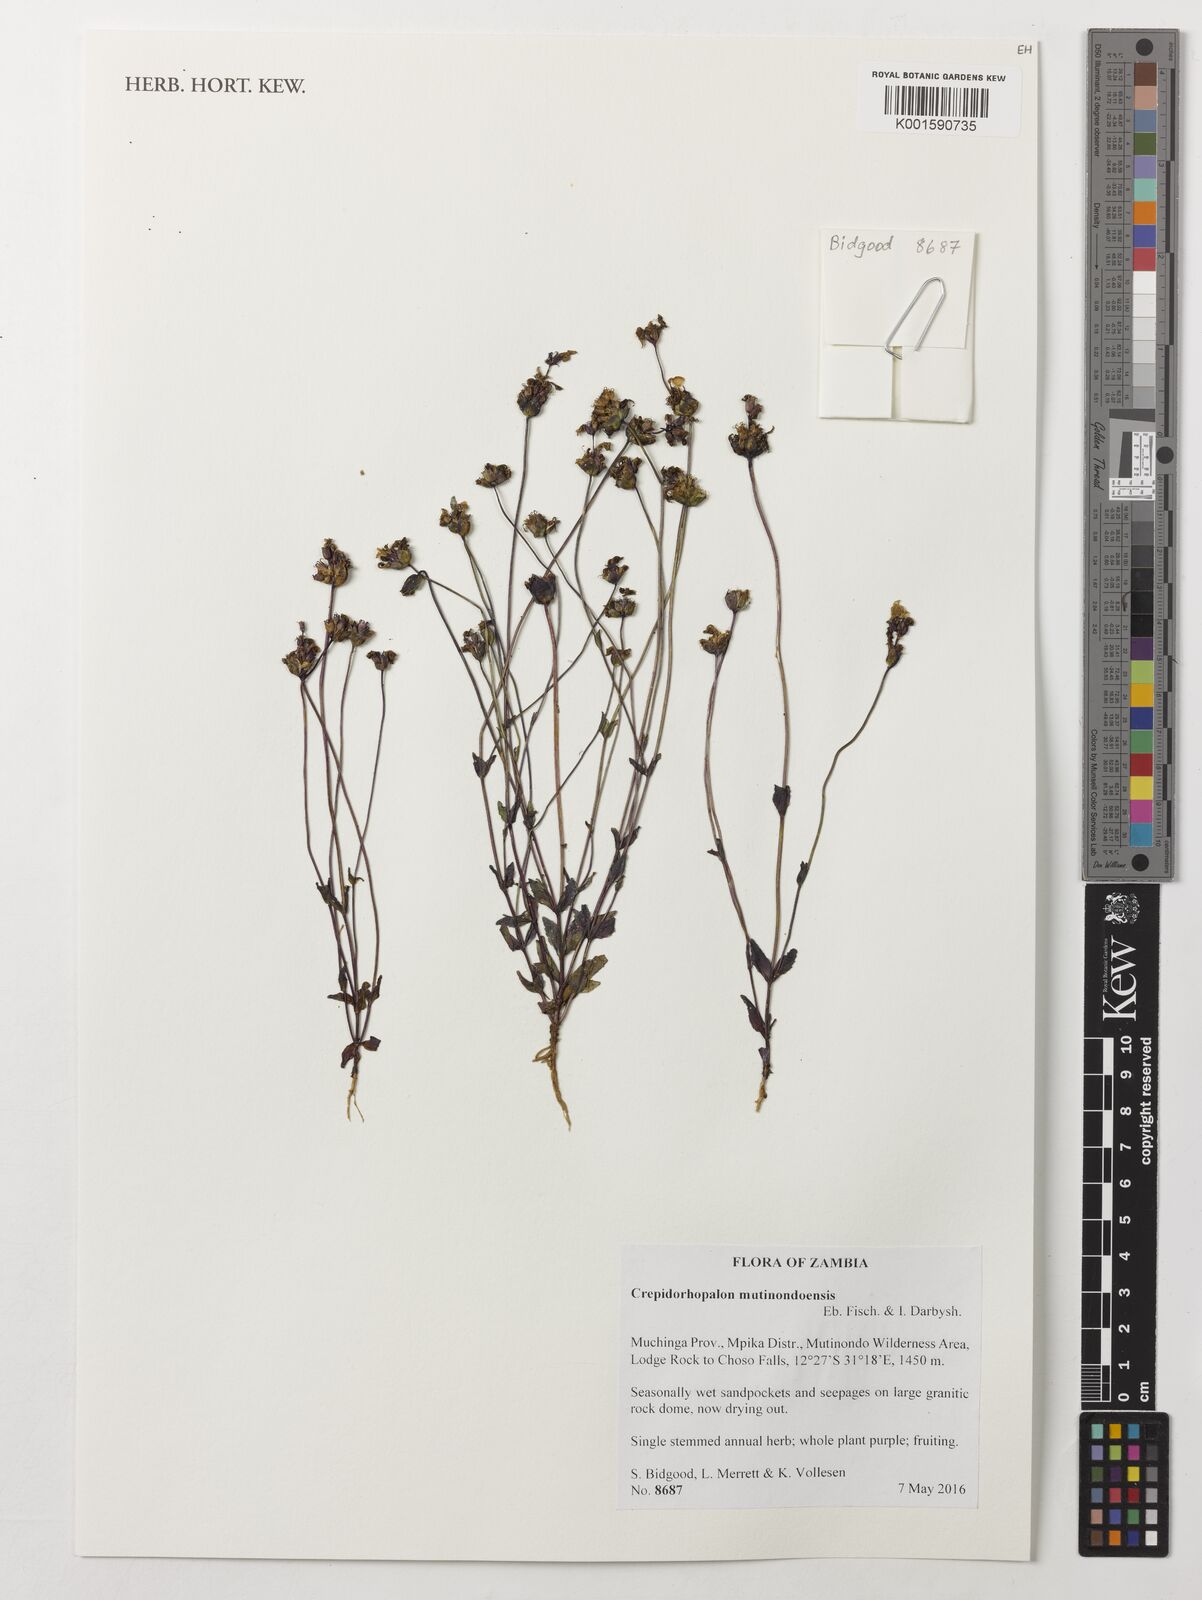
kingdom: Plantae
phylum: Tracheophyta
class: Magnoliopsida
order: Lamiales
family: Linderniaceae
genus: Crepidorhopalon
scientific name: Crepidorhopalon mutinondoensis
